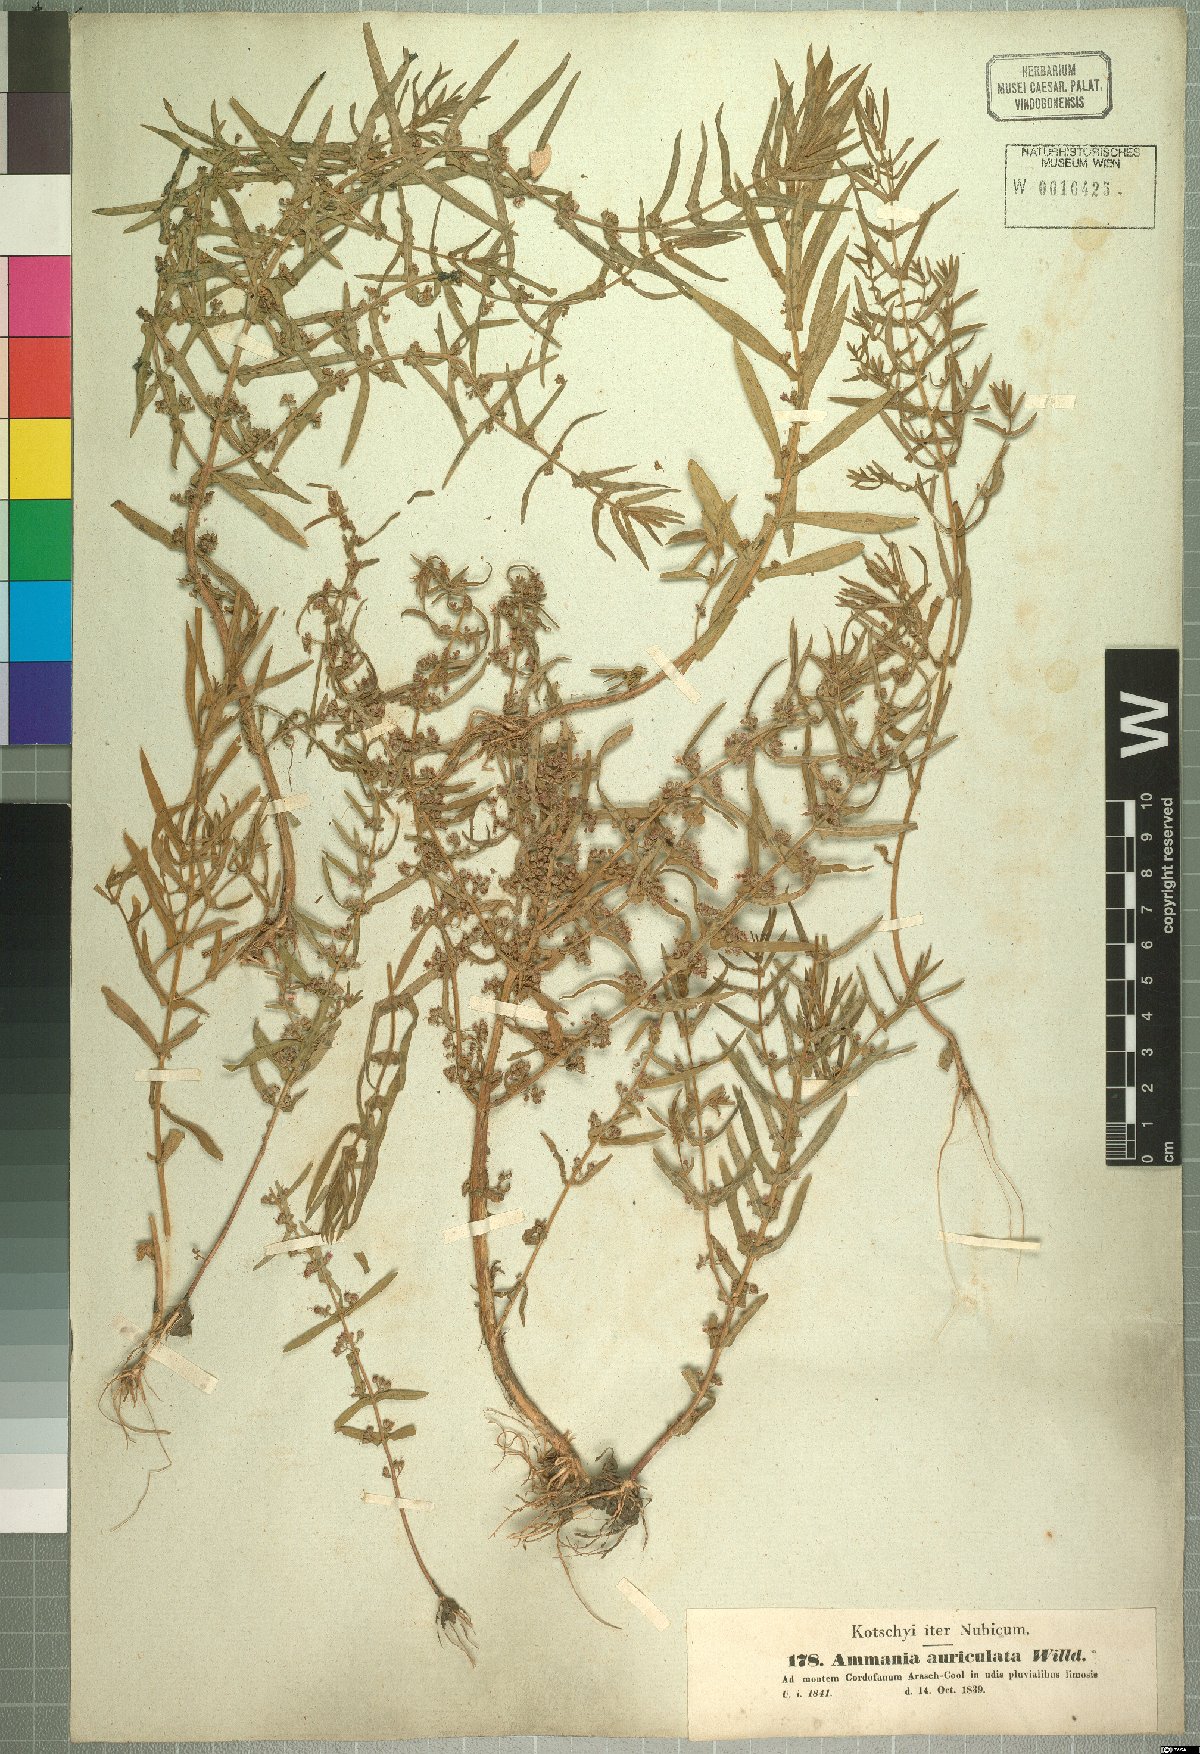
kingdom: Plantae
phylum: Tracheophyta
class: Magnoliopsida
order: Myrtales
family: Lythraceae
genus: Ammannia
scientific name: Ammannia auriculata
